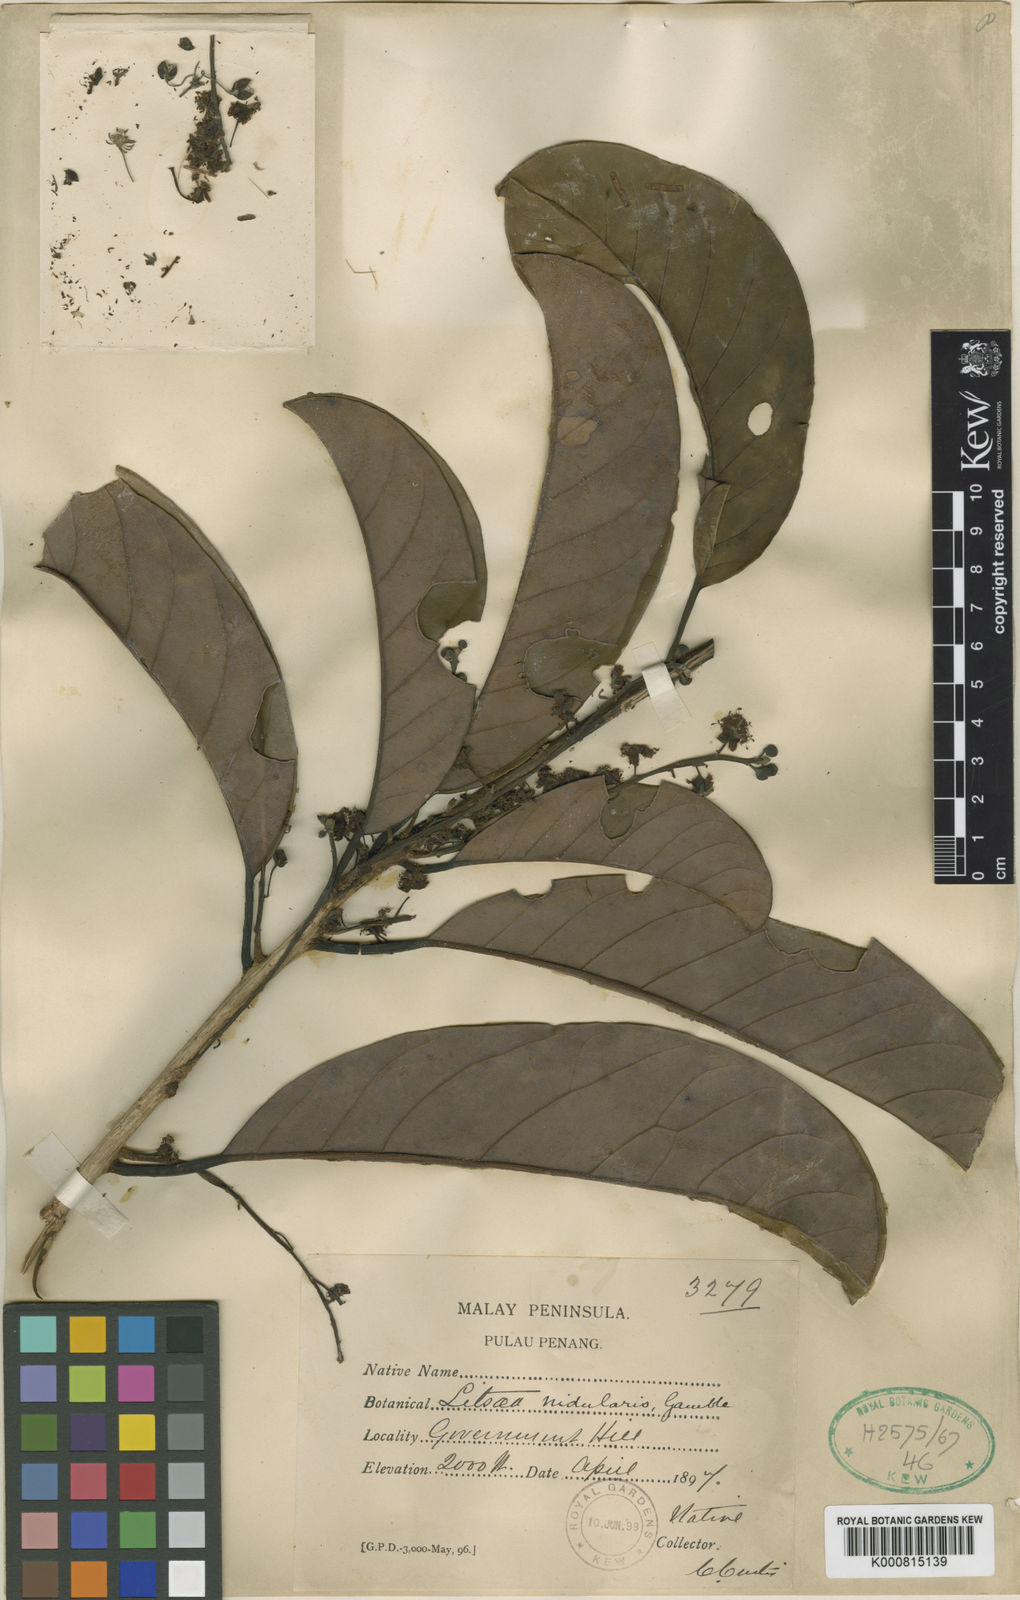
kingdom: Plantae
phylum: Tracheophyta
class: Magnoliopsida
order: Laurales
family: Lauraceae
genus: Litsea
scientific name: Litsea costalis
